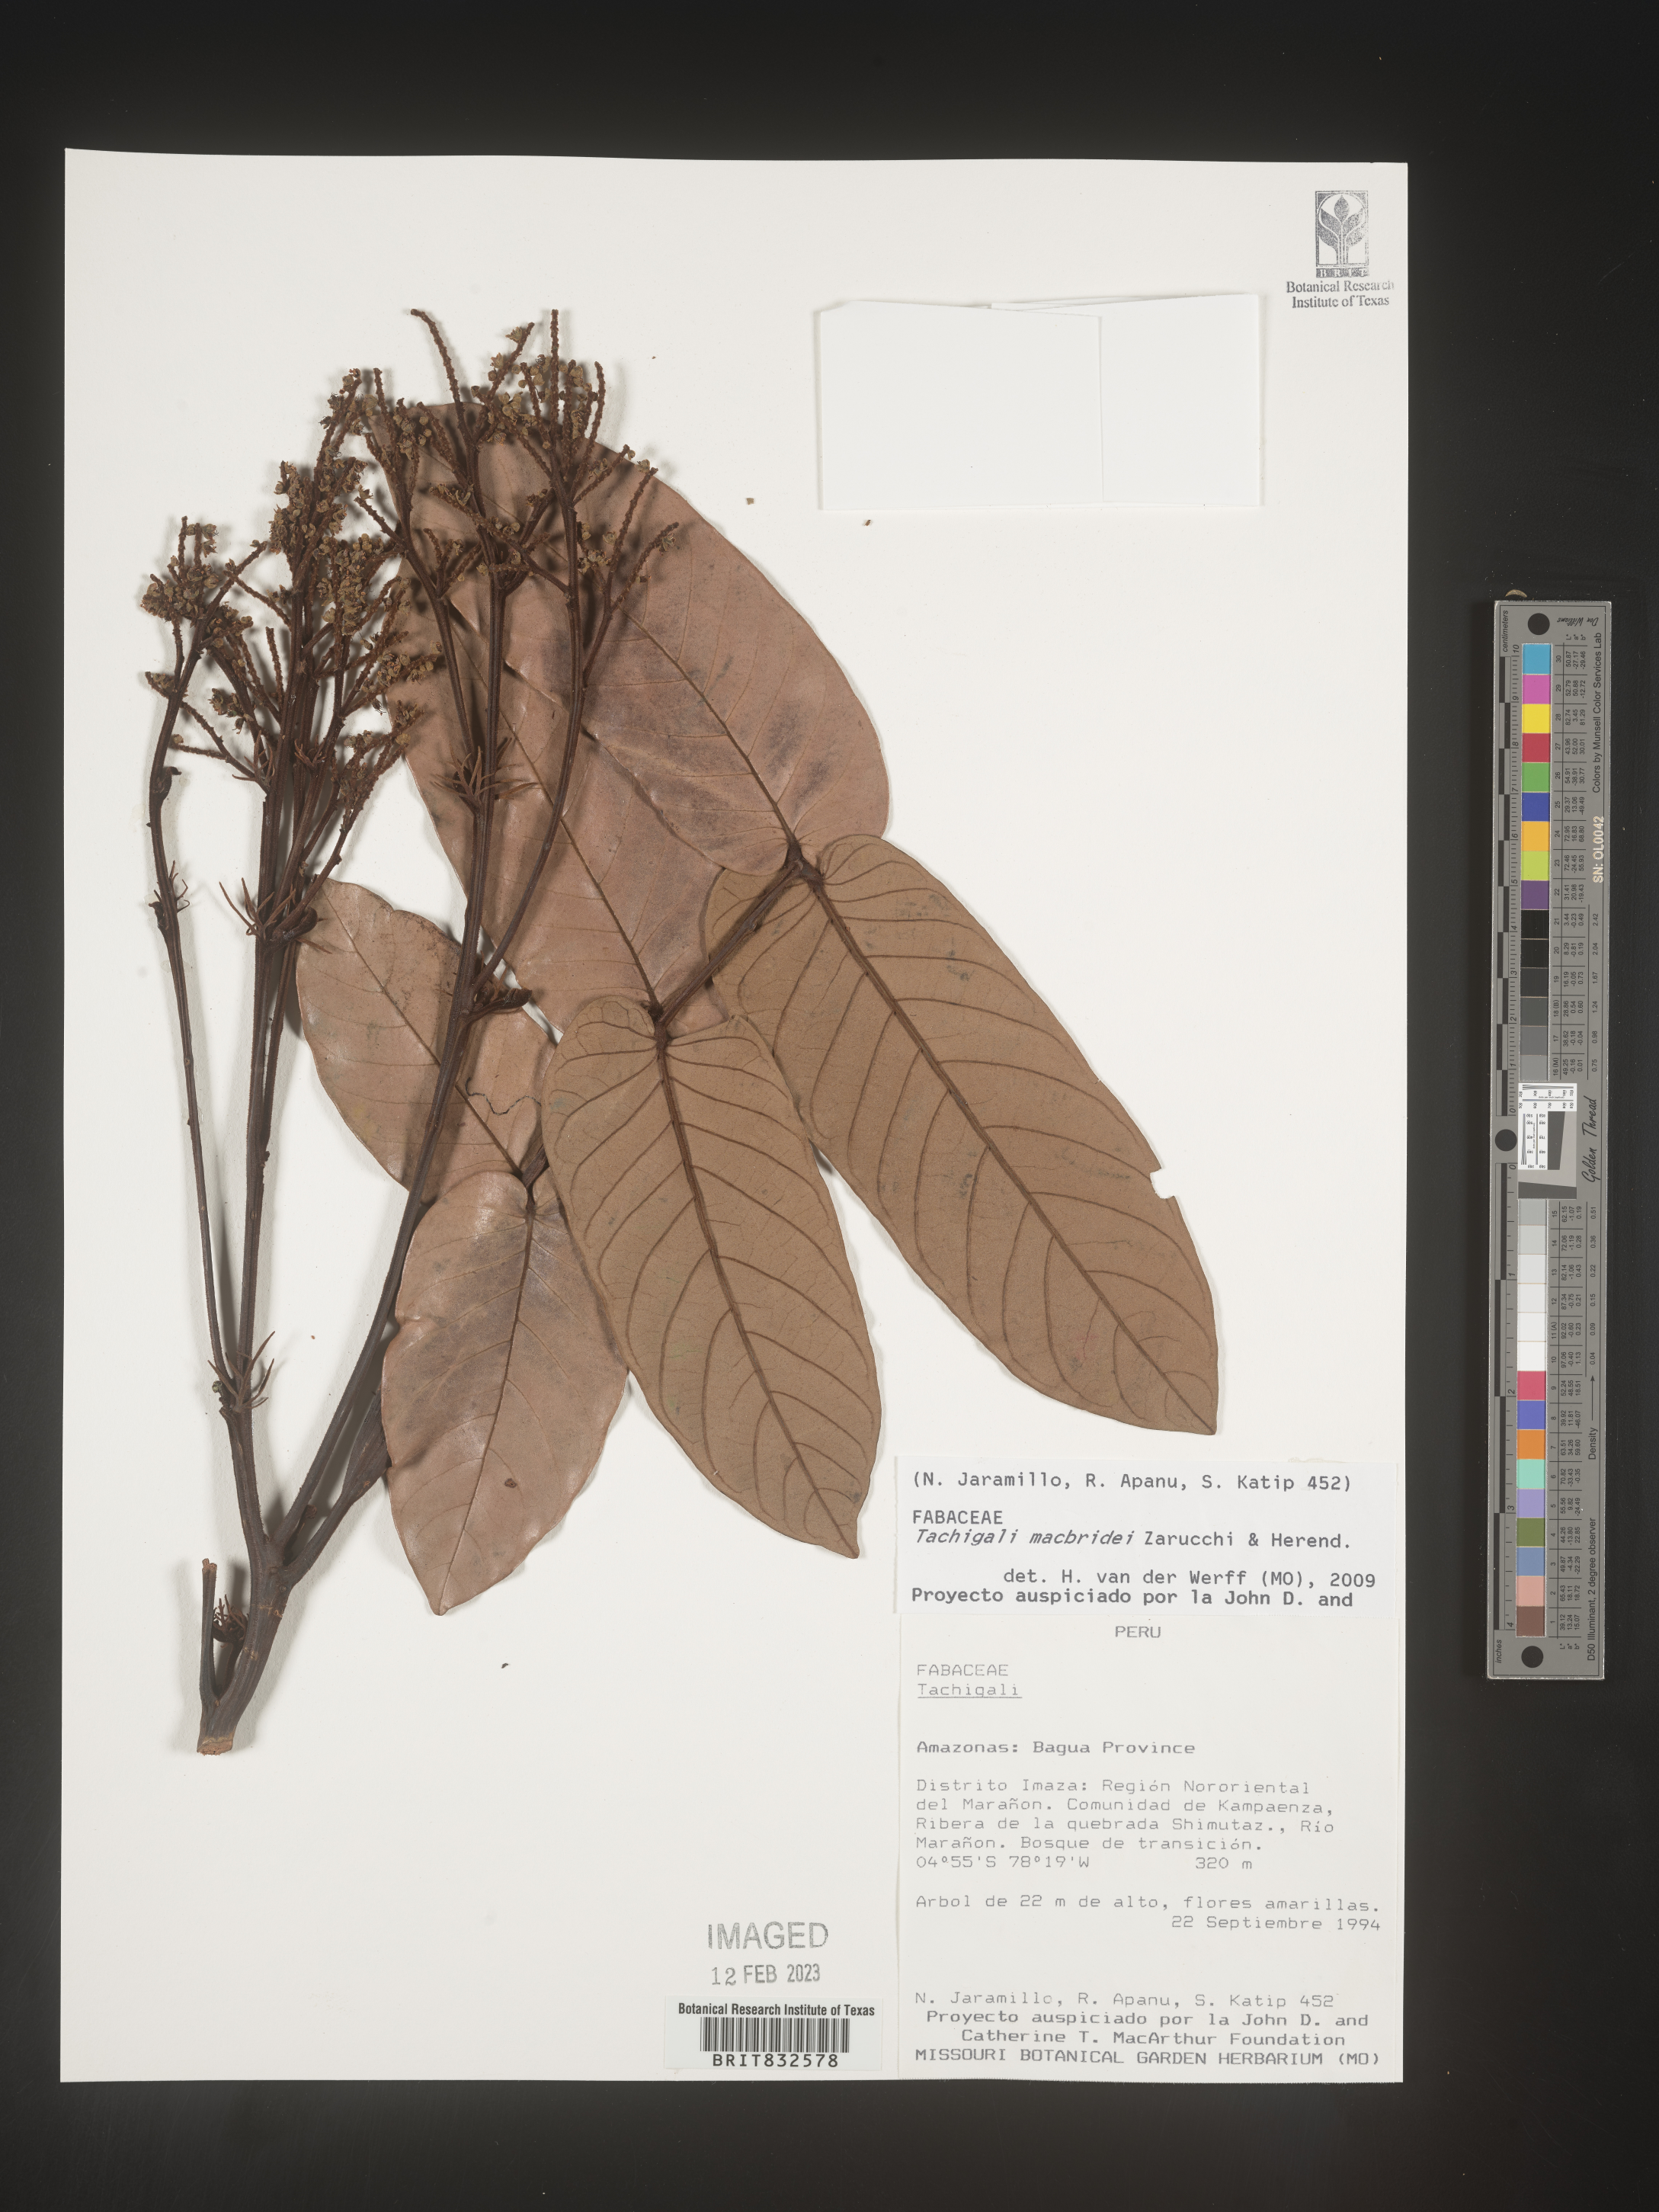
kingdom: Plantae
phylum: Tracheophyta
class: Magnoliopsida
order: Fabales
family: Fabaceae
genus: Tachigali
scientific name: Tachigali macbridei
